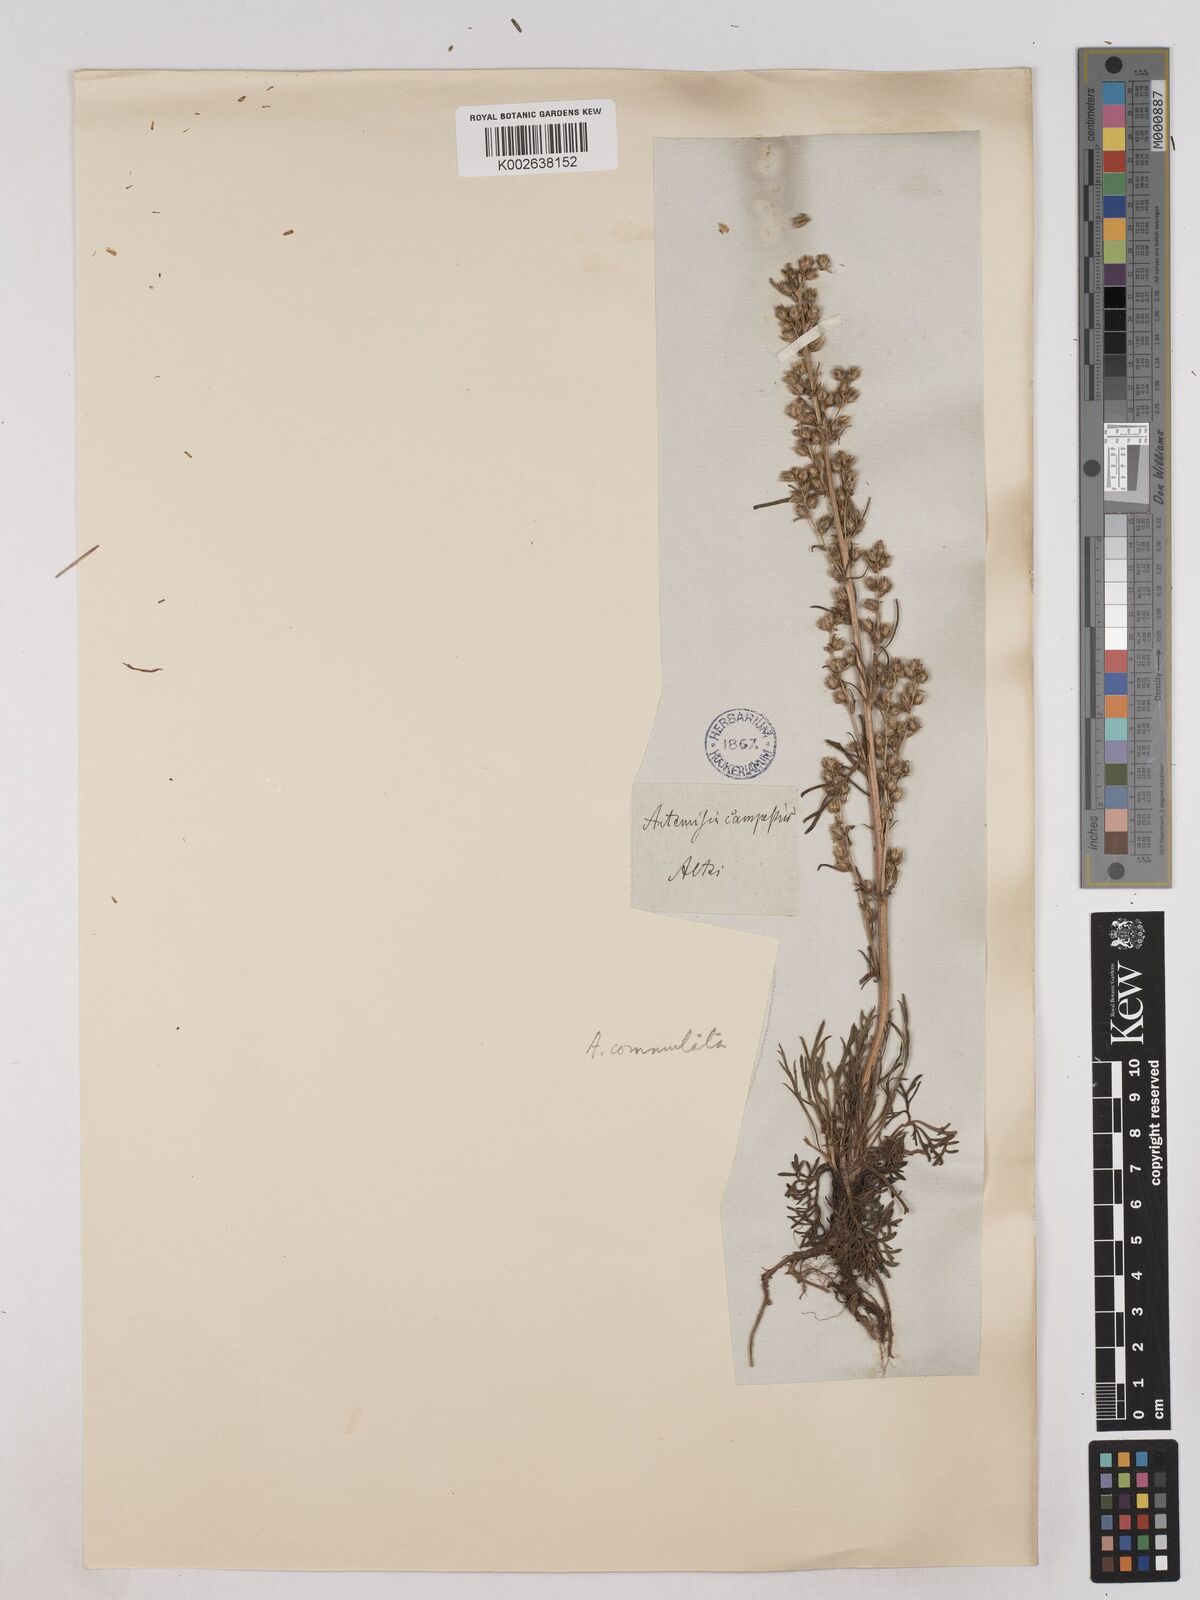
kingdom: Plantae
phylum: Tracheophyta
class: Magnoliopsida
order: Asterales
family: Asteraceae
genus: Artemisia
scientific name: Artemisia pubescens
